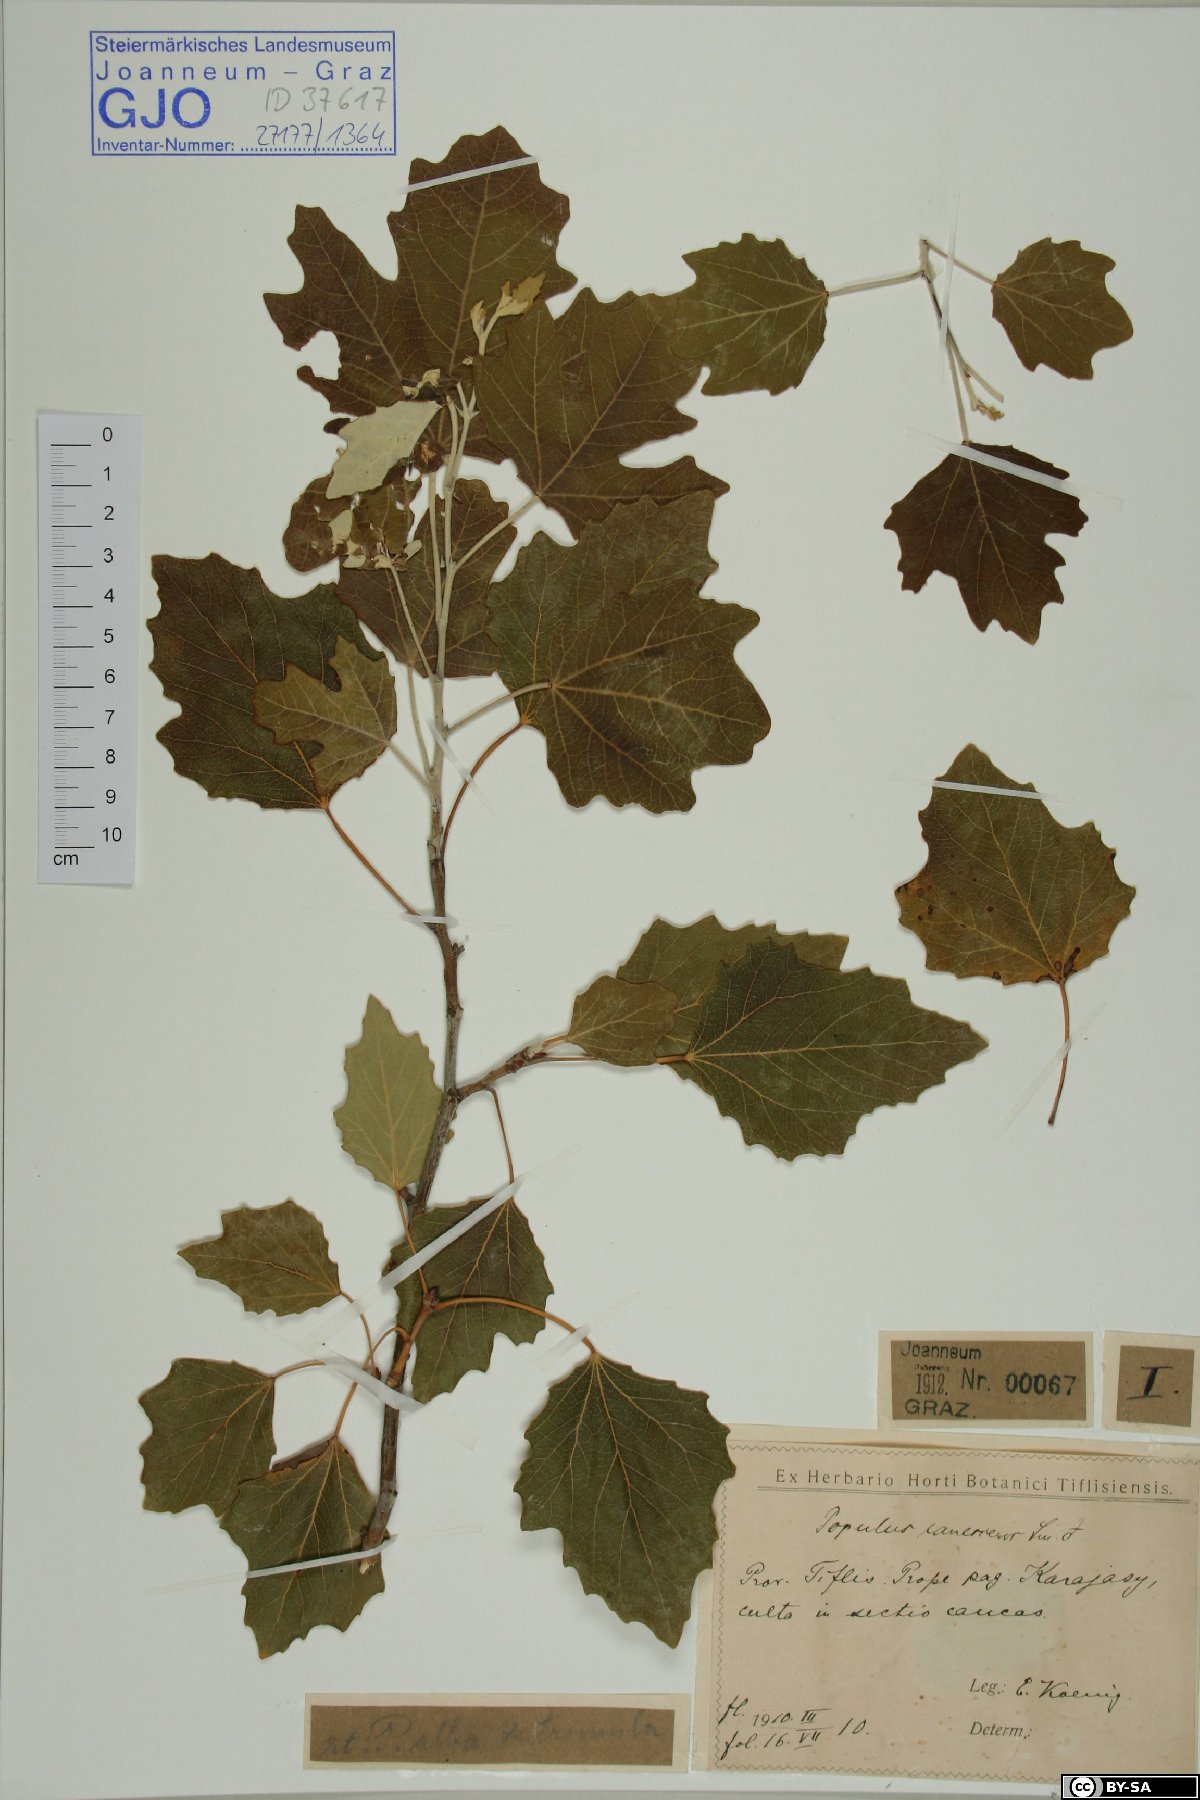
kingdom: Plantae
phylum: Tracheophyta
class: Magnoliopsida
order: Malpighiales
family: Salicaceae
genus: Populus
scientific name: Populus canescens
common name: Gray poplar
